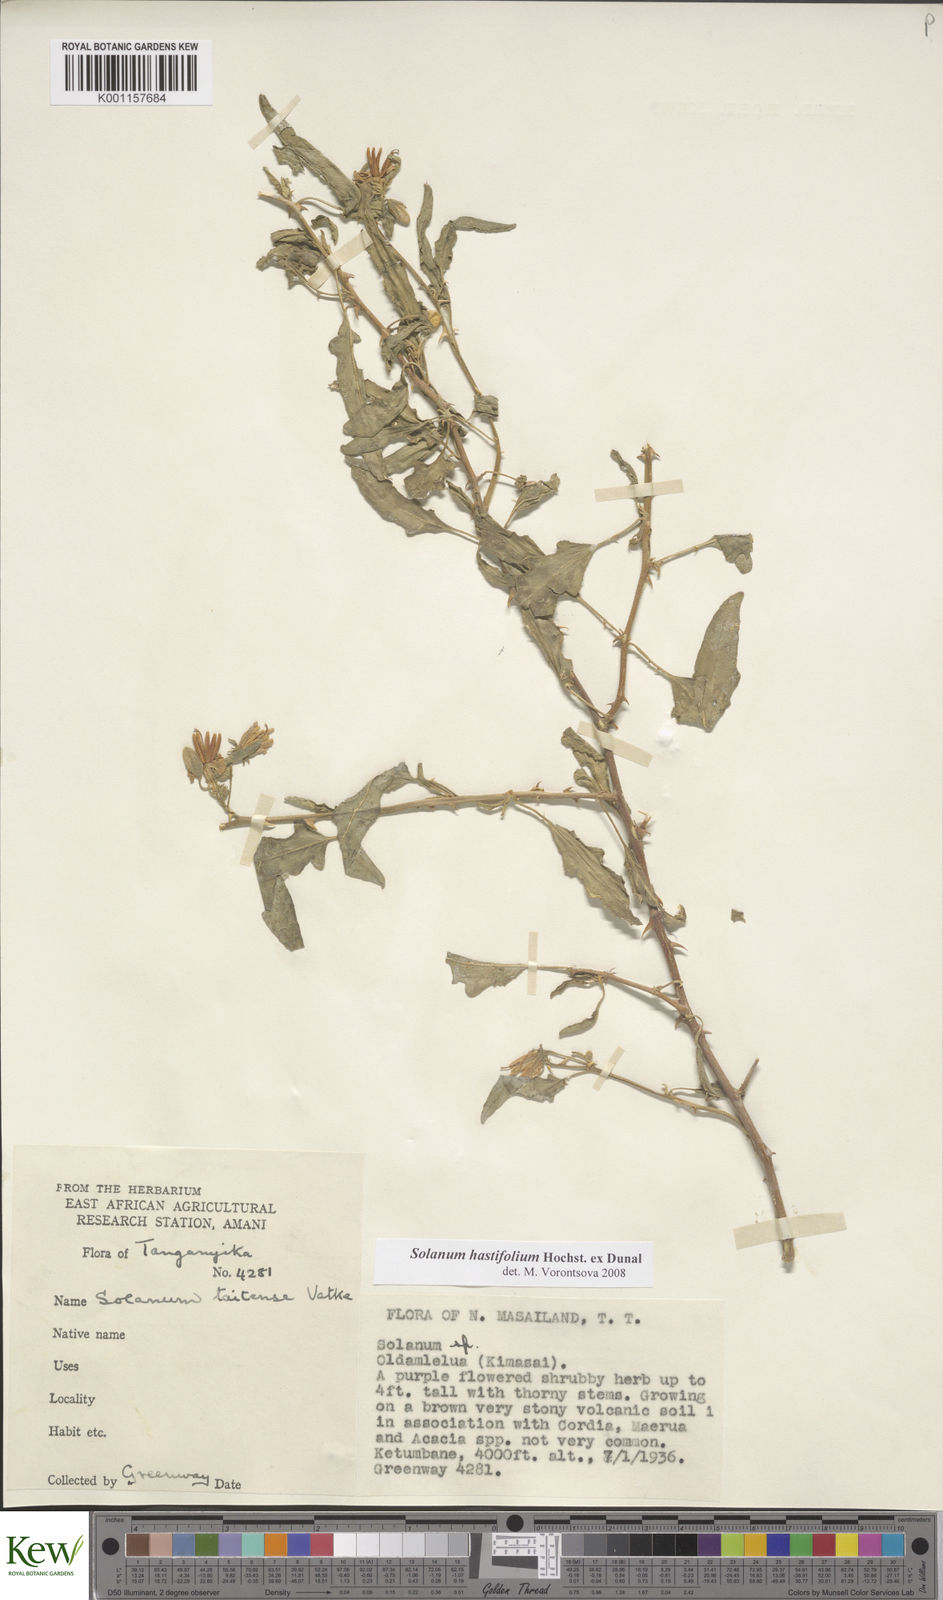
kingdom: Plantae
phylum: Tracheophyta
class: Magnoliopsida
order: Solanales
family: Solanaceae
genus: Solanum
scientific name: Solanum hastifolium
